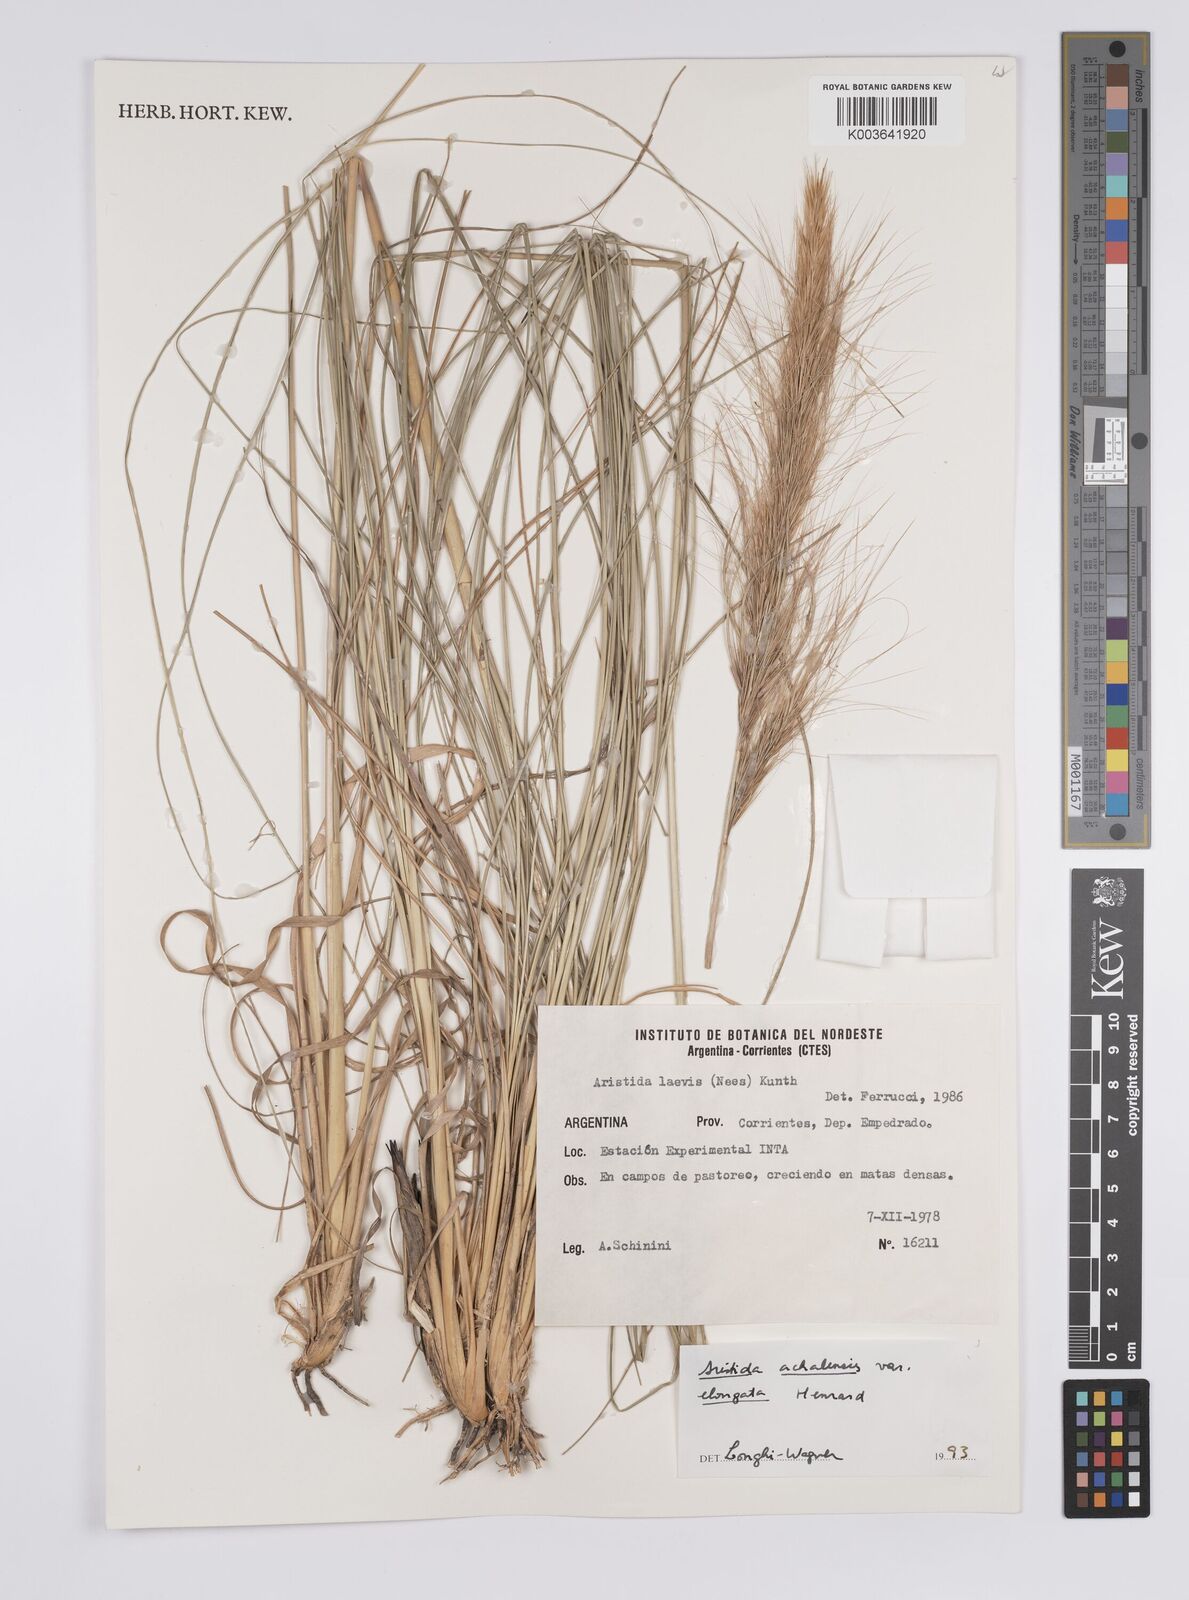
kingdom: Plantae
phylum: Tracheophyta
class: Liliopsida
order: Poales
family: Poaceae
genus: Aristida
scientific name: Aristida achalensis
